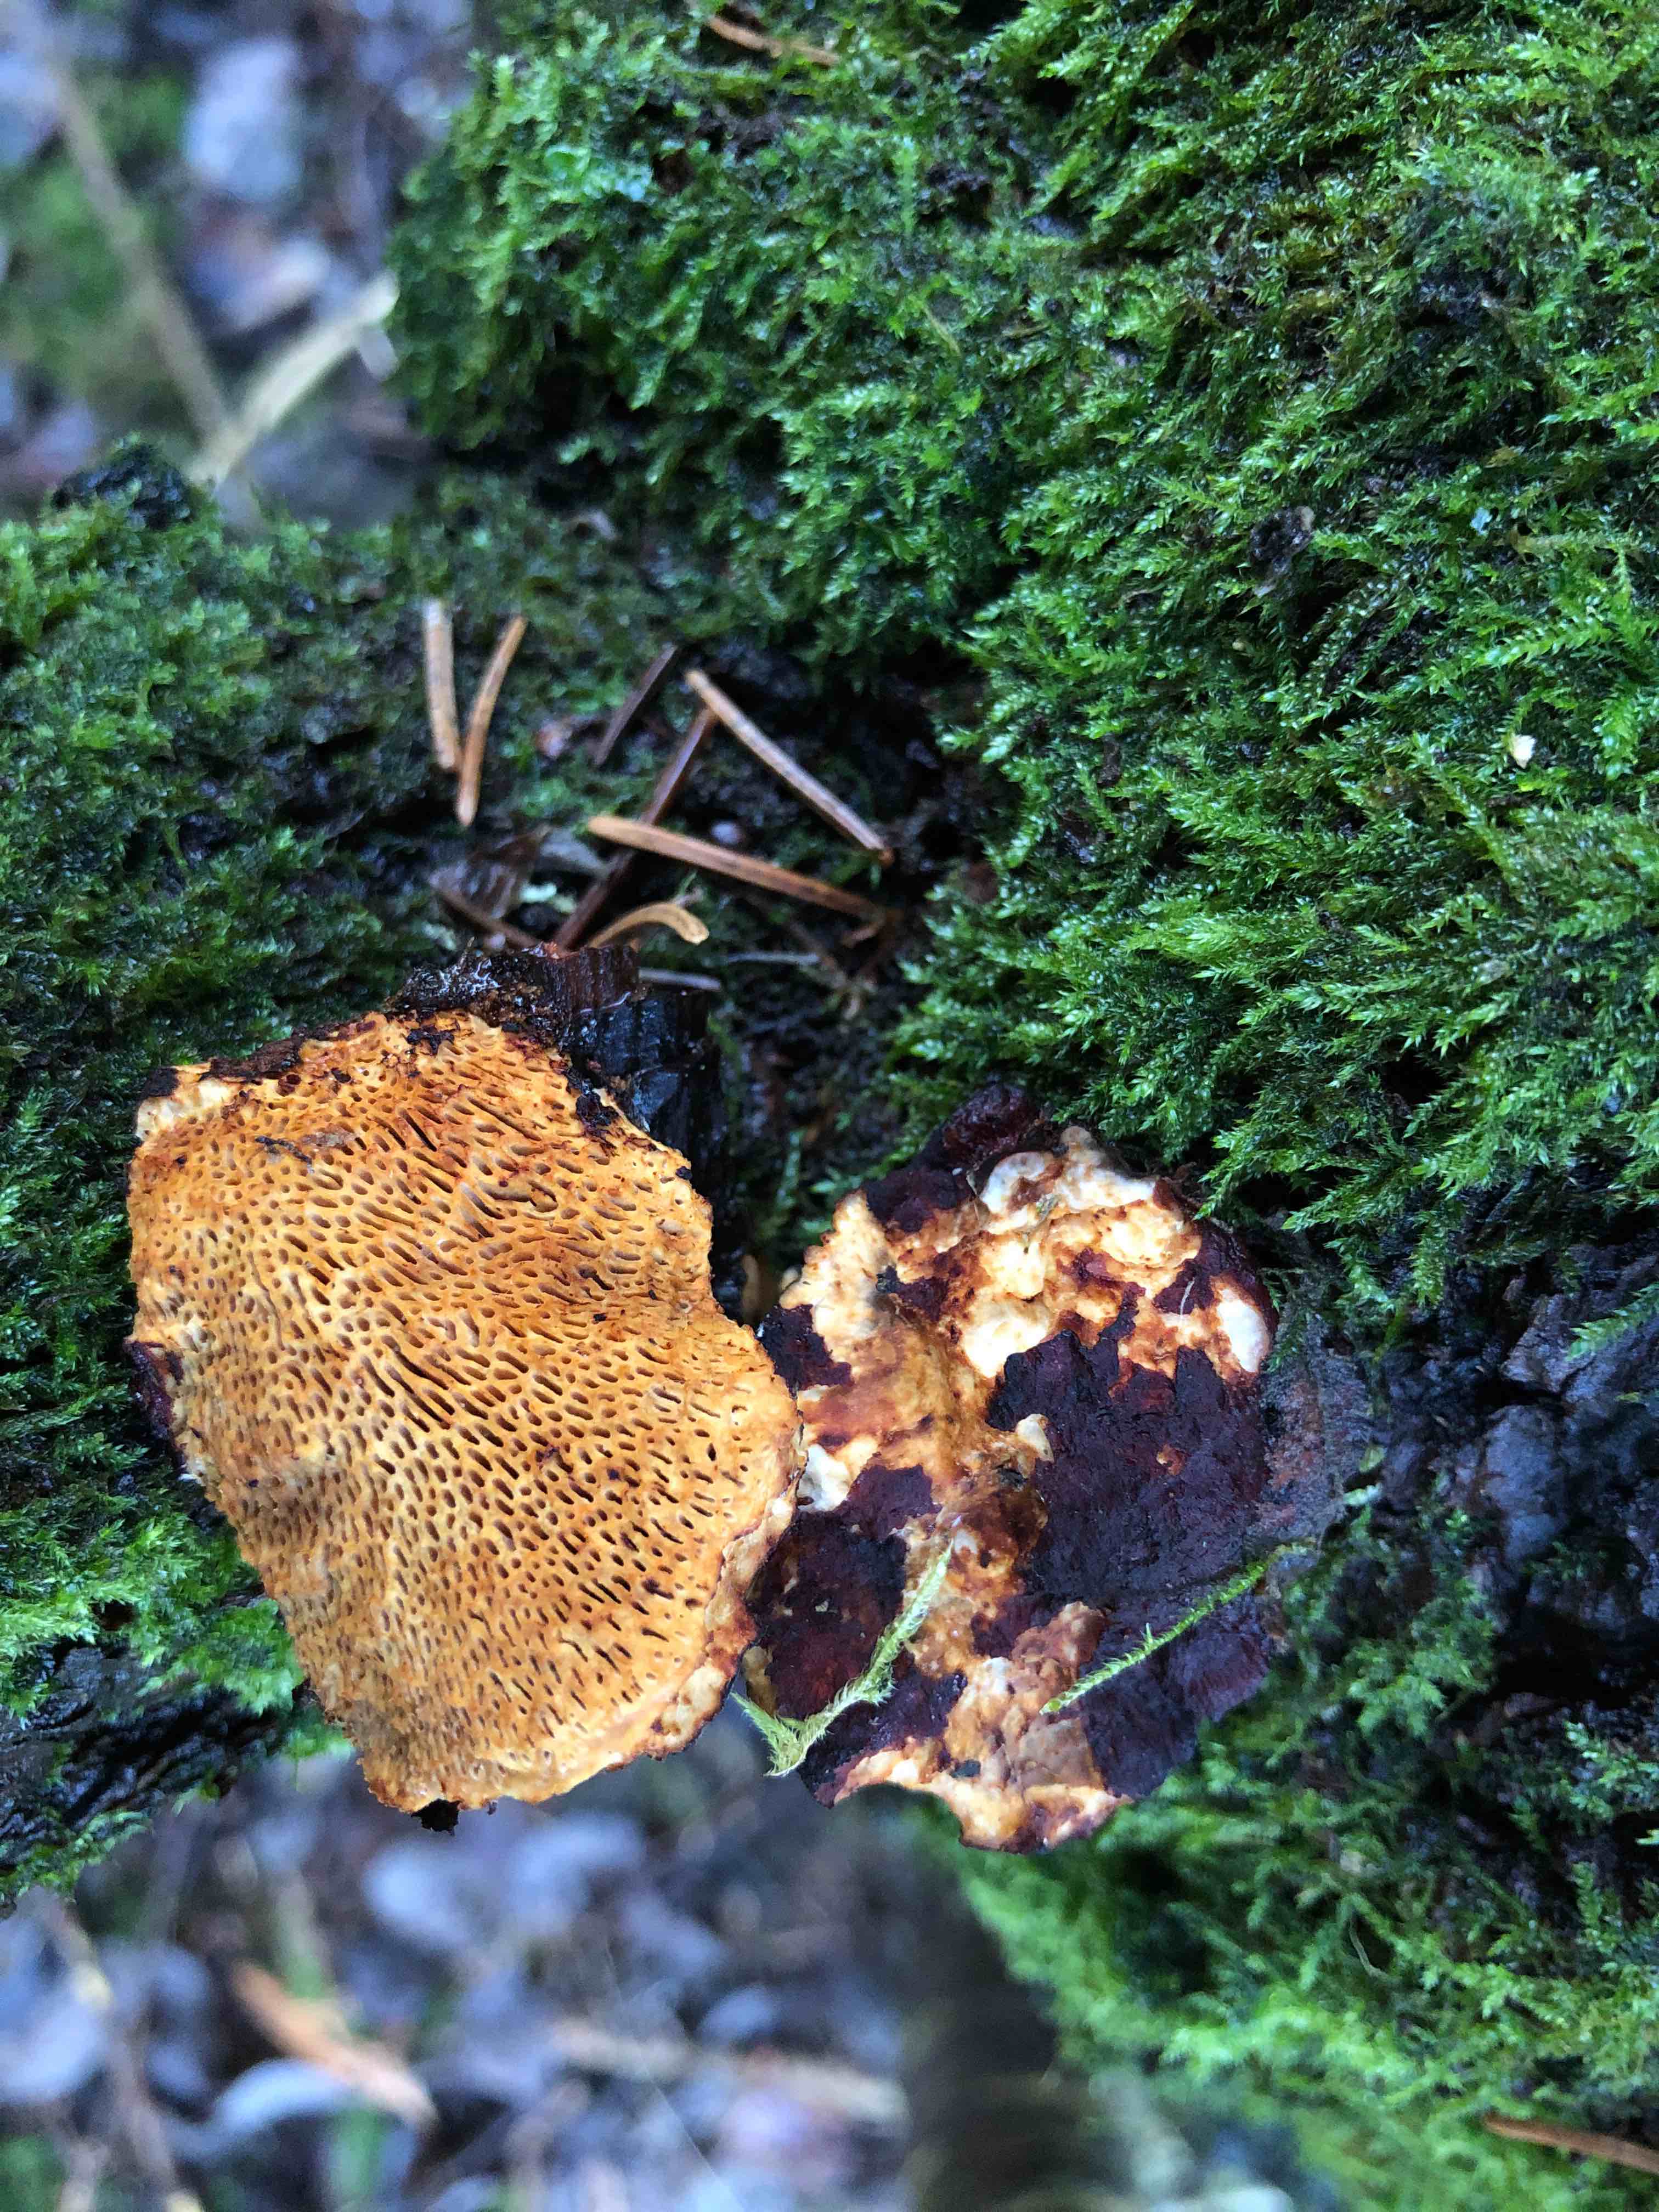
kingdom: Fungi
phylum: Basidiomycota
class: Agaricomycetes
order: Polyporales
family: Polyporaceae
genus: Daedaleopsis
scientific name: Daedaleopsis confragosa
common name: rødmende læderporesvamp
